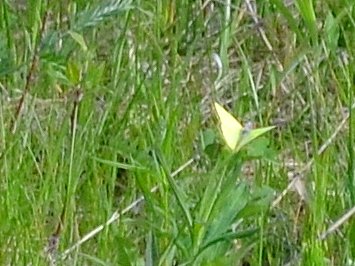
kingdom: Animalia
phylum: Arthropoda
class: Insecta
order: Lepidoptera
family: Pieridae
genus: Colias
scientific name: Colias philodice
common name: Clouded Sulphur
